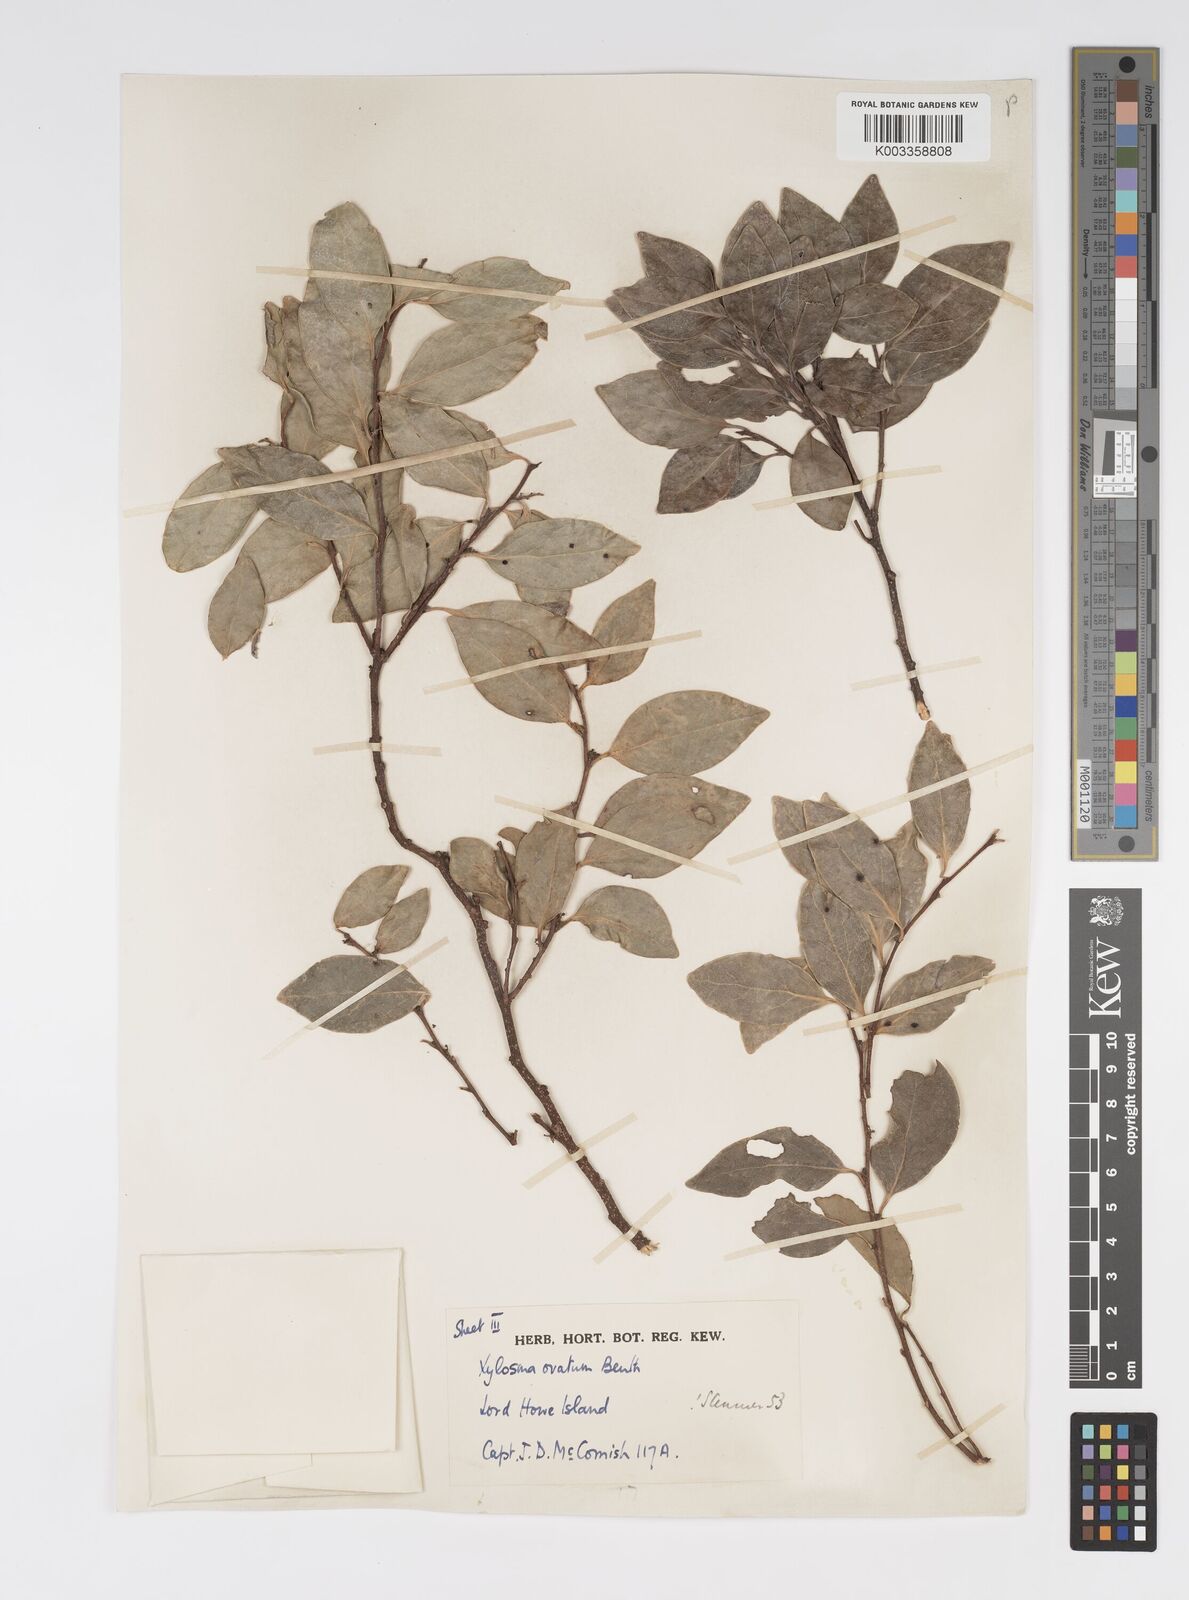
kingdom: Plantae
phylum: Tracheophyta
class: Magnoliopsida
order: Malpighiales
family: Salicaceae
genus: Xylosma
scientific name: Xylosma maidenii
